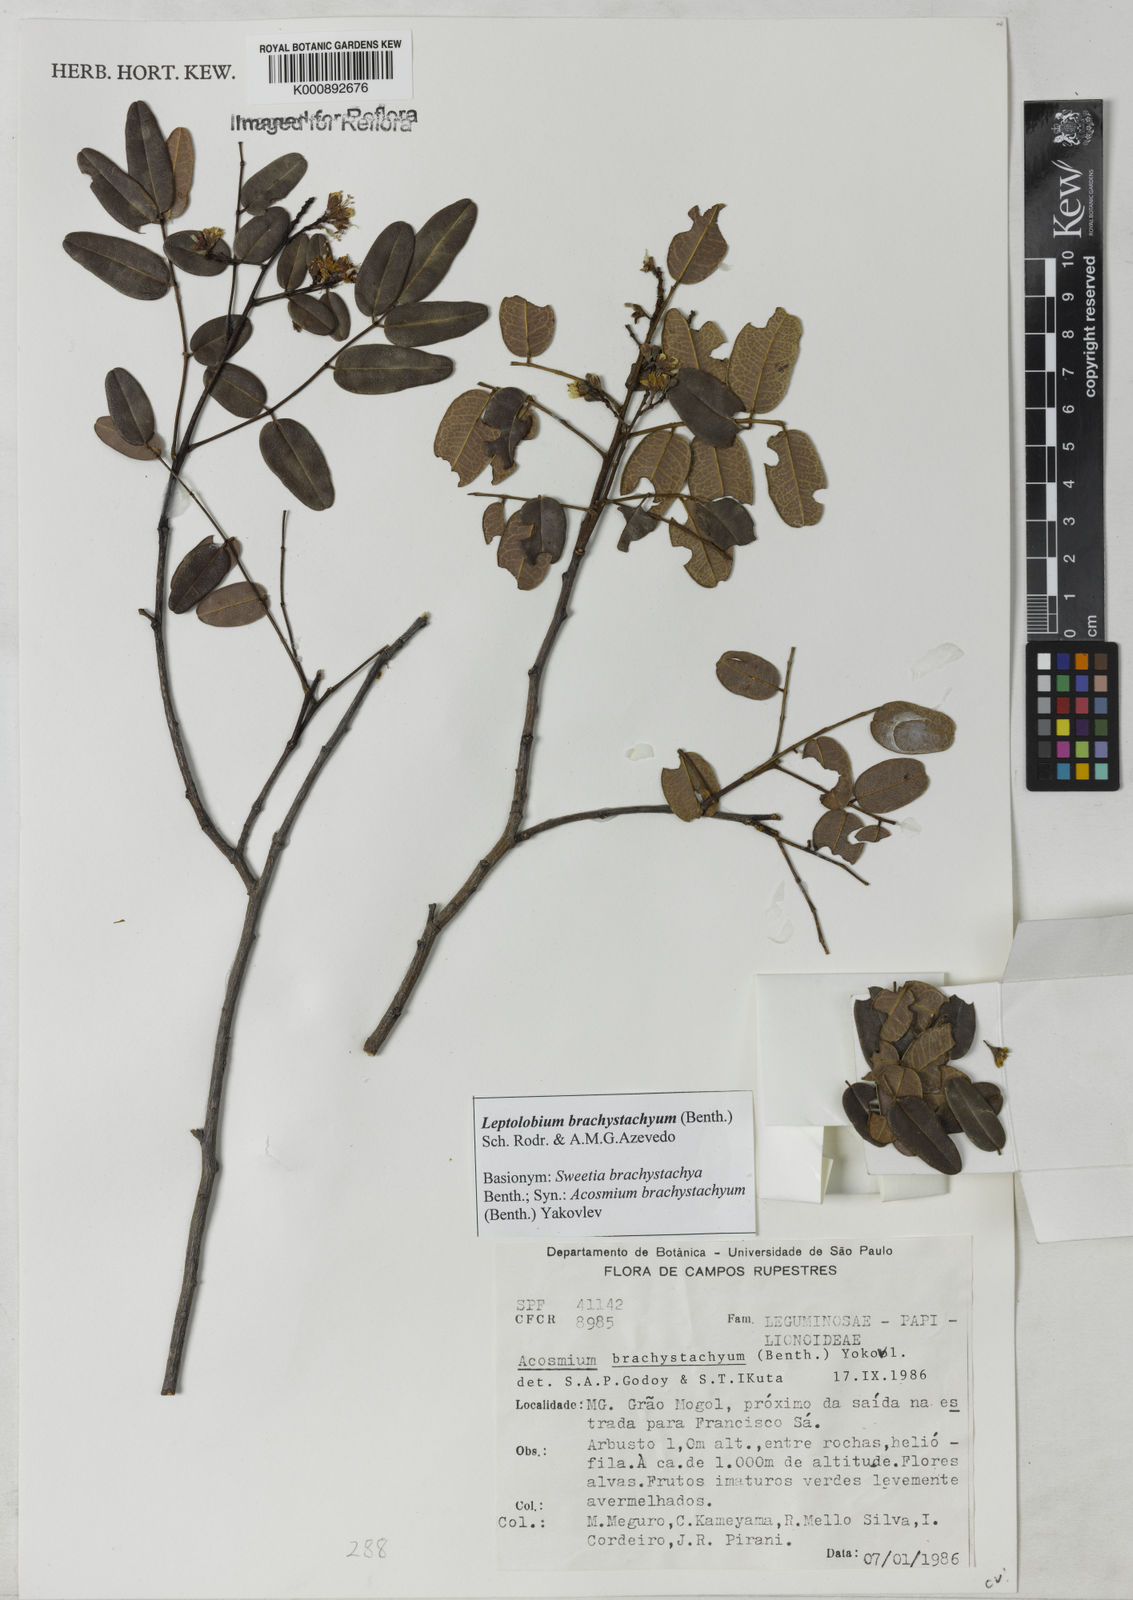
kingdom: Plantae
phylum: Tracheophyta
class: Magnoliopsida
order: Fabales
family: Fabaceae
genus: Leptolobium
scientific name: Leptolobium brachystachyum
